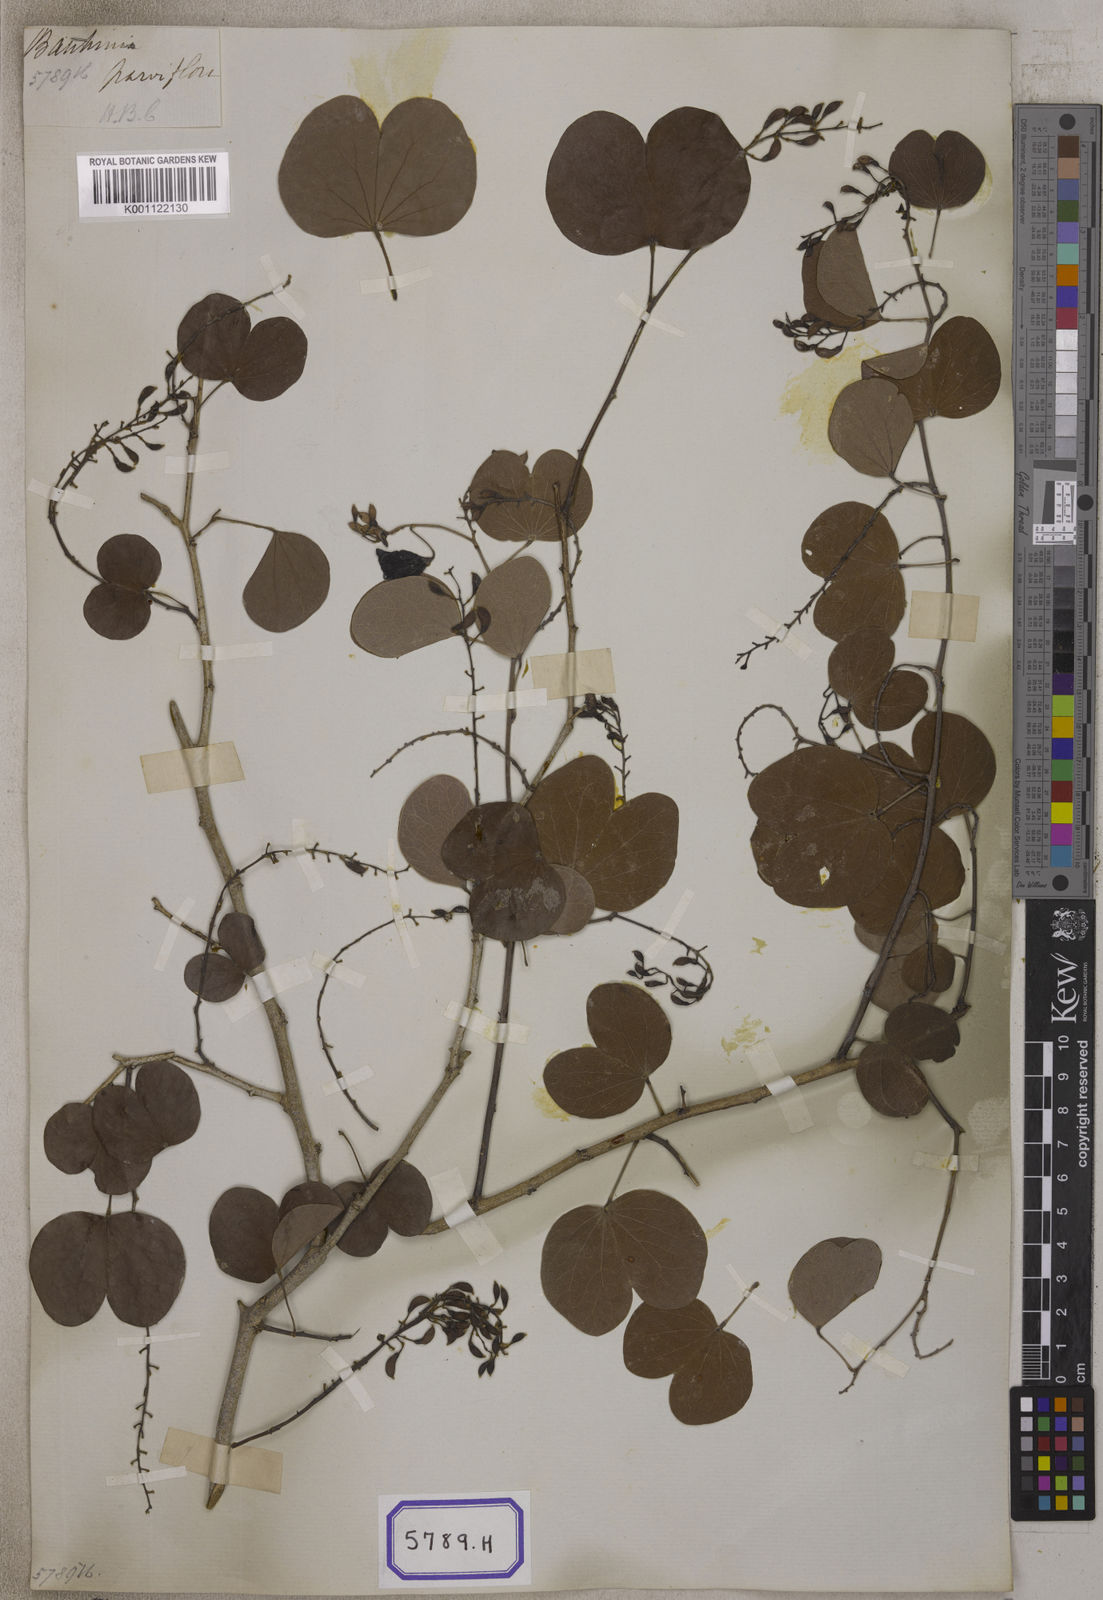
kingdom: Plantae
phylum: Tracheophyta
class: Magnoliopsida
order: Fabales
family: Fabaceae
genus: Bauhinia
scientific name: Bauhinia
